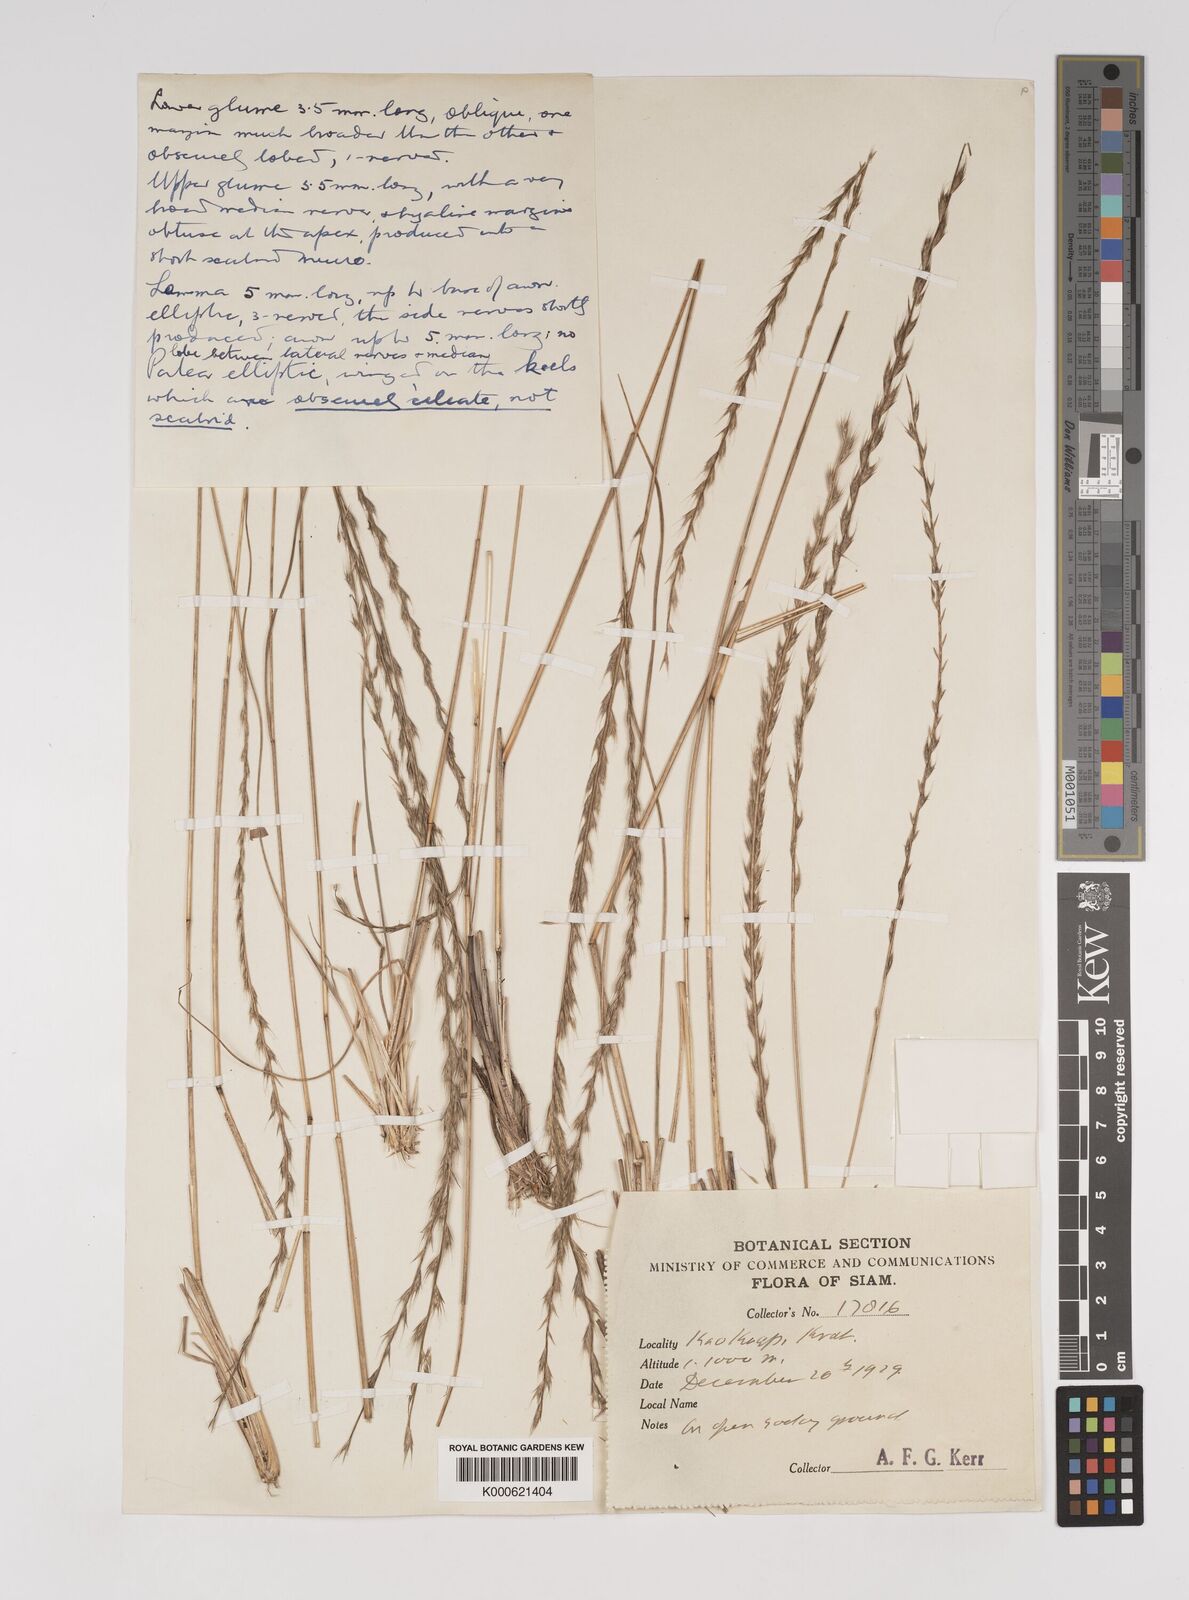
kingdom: Plantae
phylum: Tracheophyta
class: Liliopsida
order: Poales
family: Poaceae
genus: Tripogon
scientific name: Tripogon
